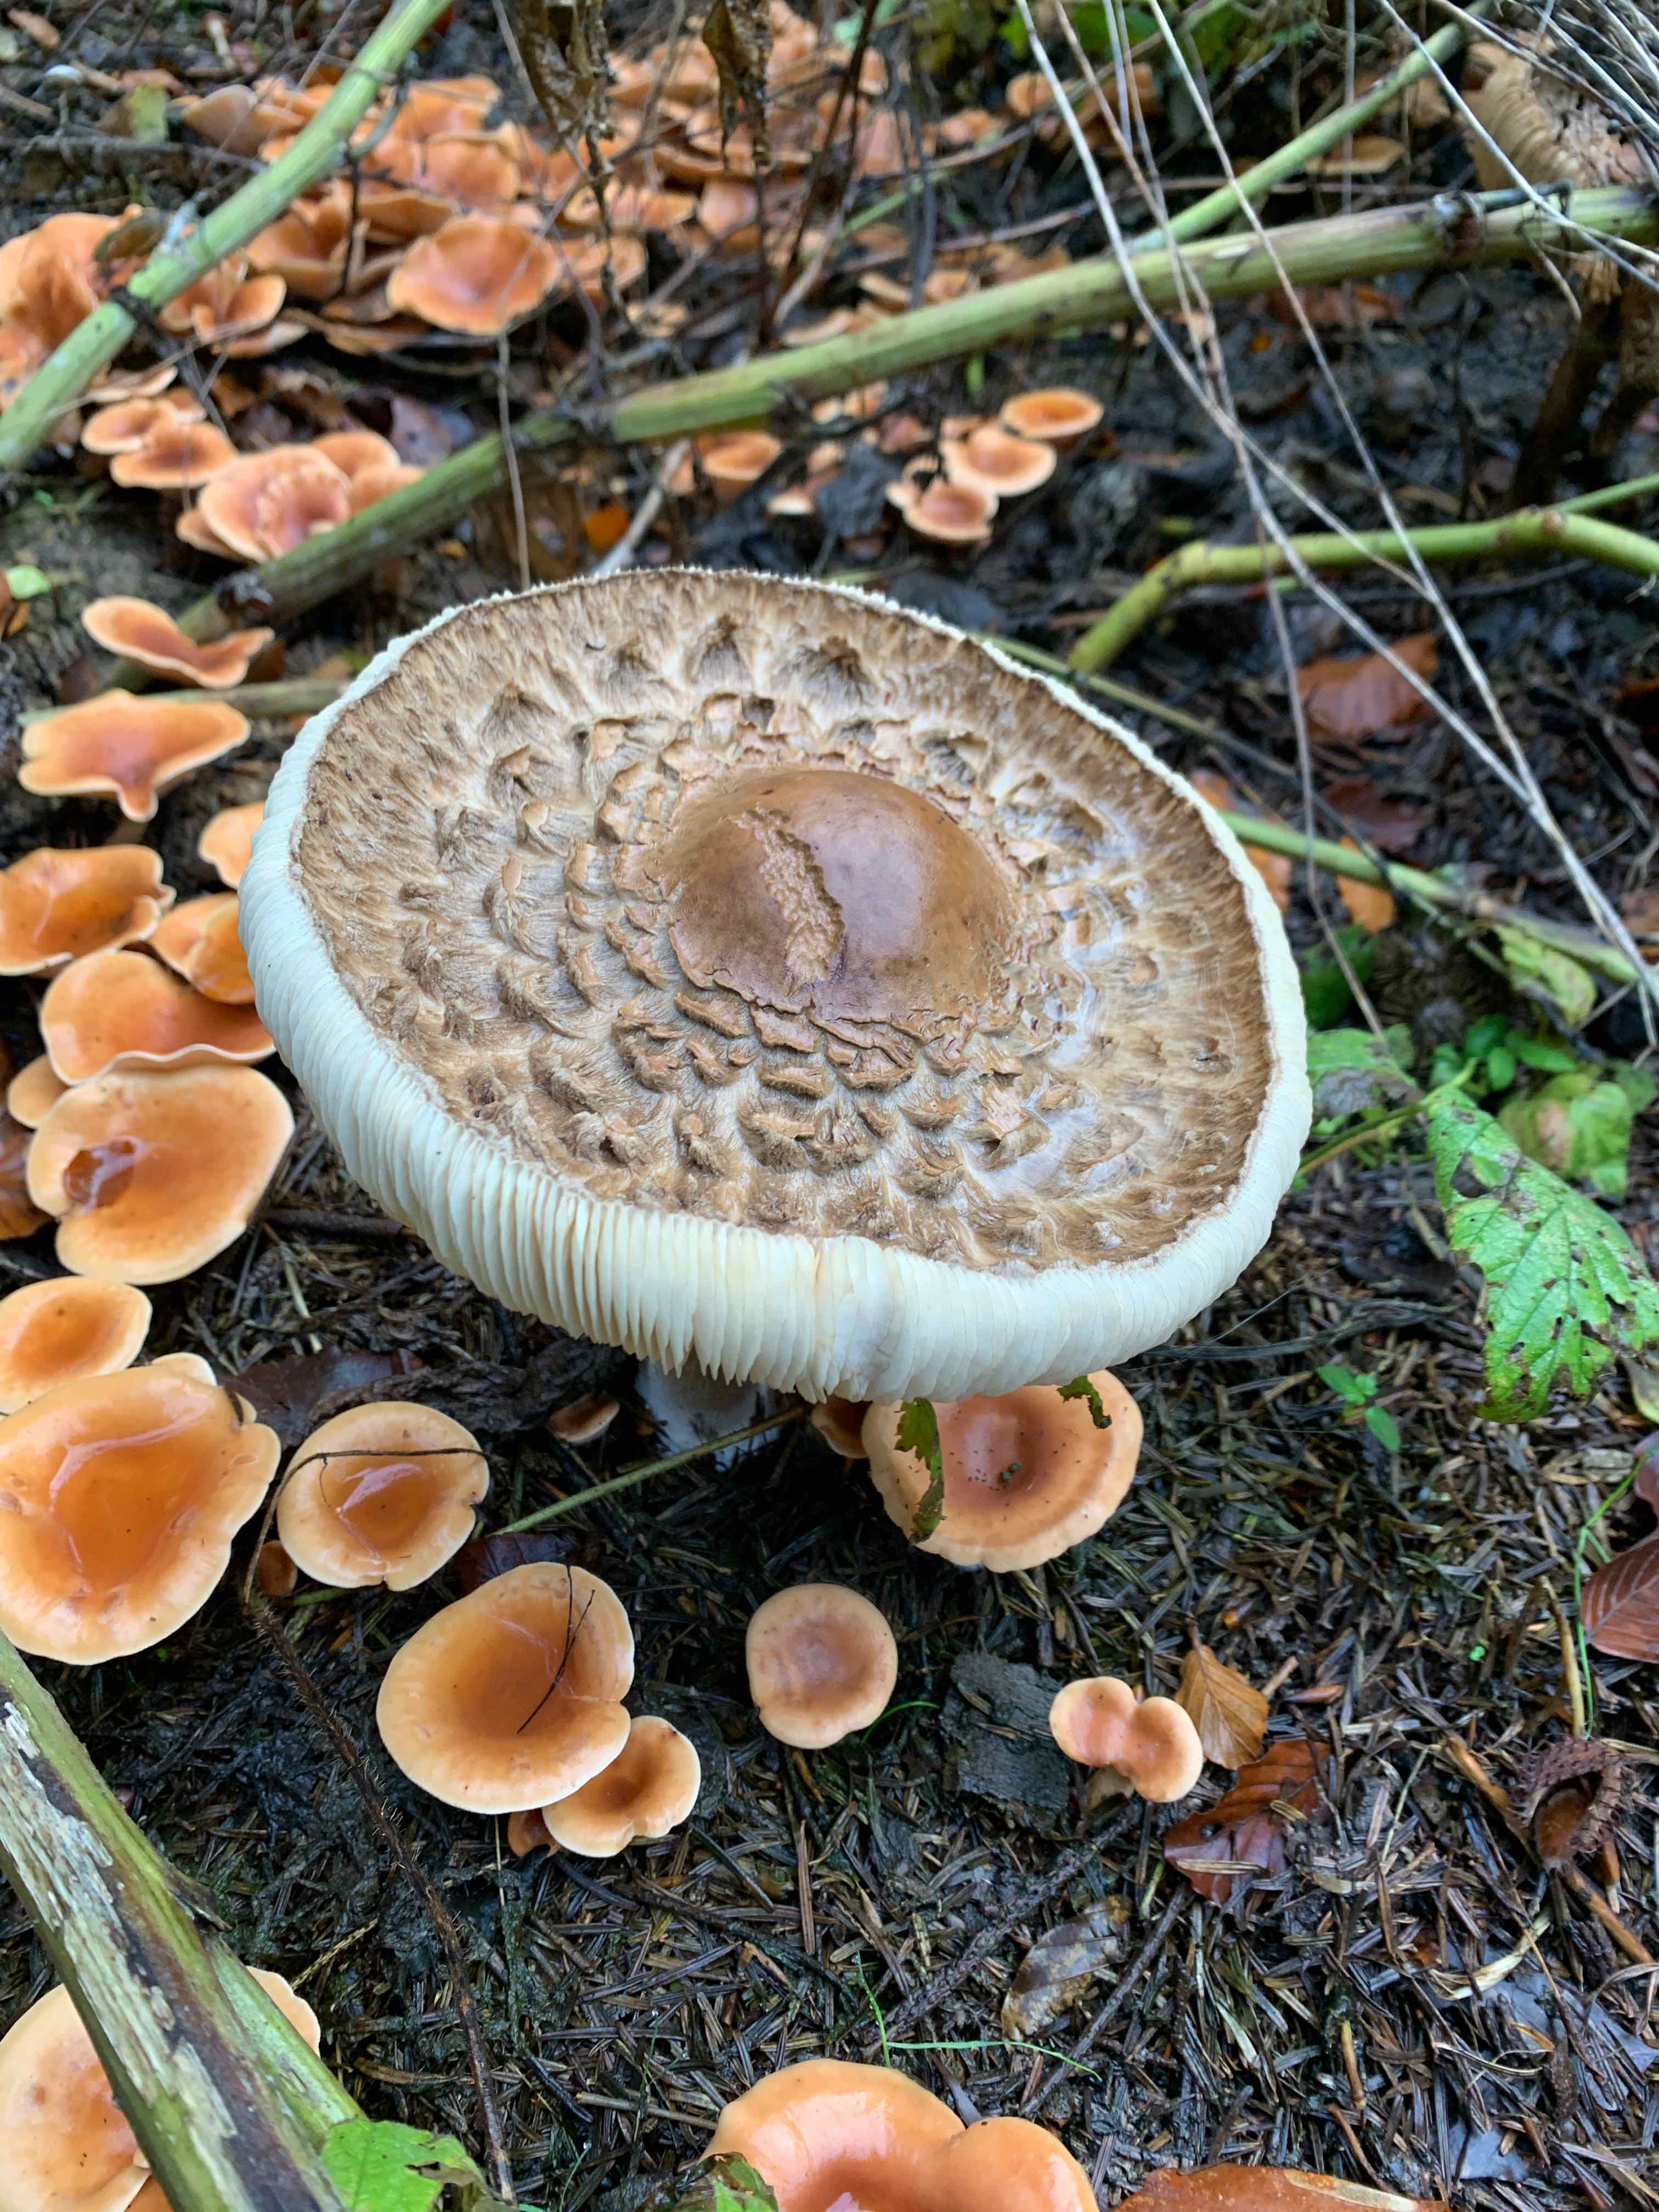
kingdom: Fungi
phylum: Basidiomycota
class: Agaricomycetes
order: Agaricales
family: Agaricaceae
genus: Chlorophyllum
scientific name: Chlorophyllum olivieri
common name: almindelig rabarberhat
